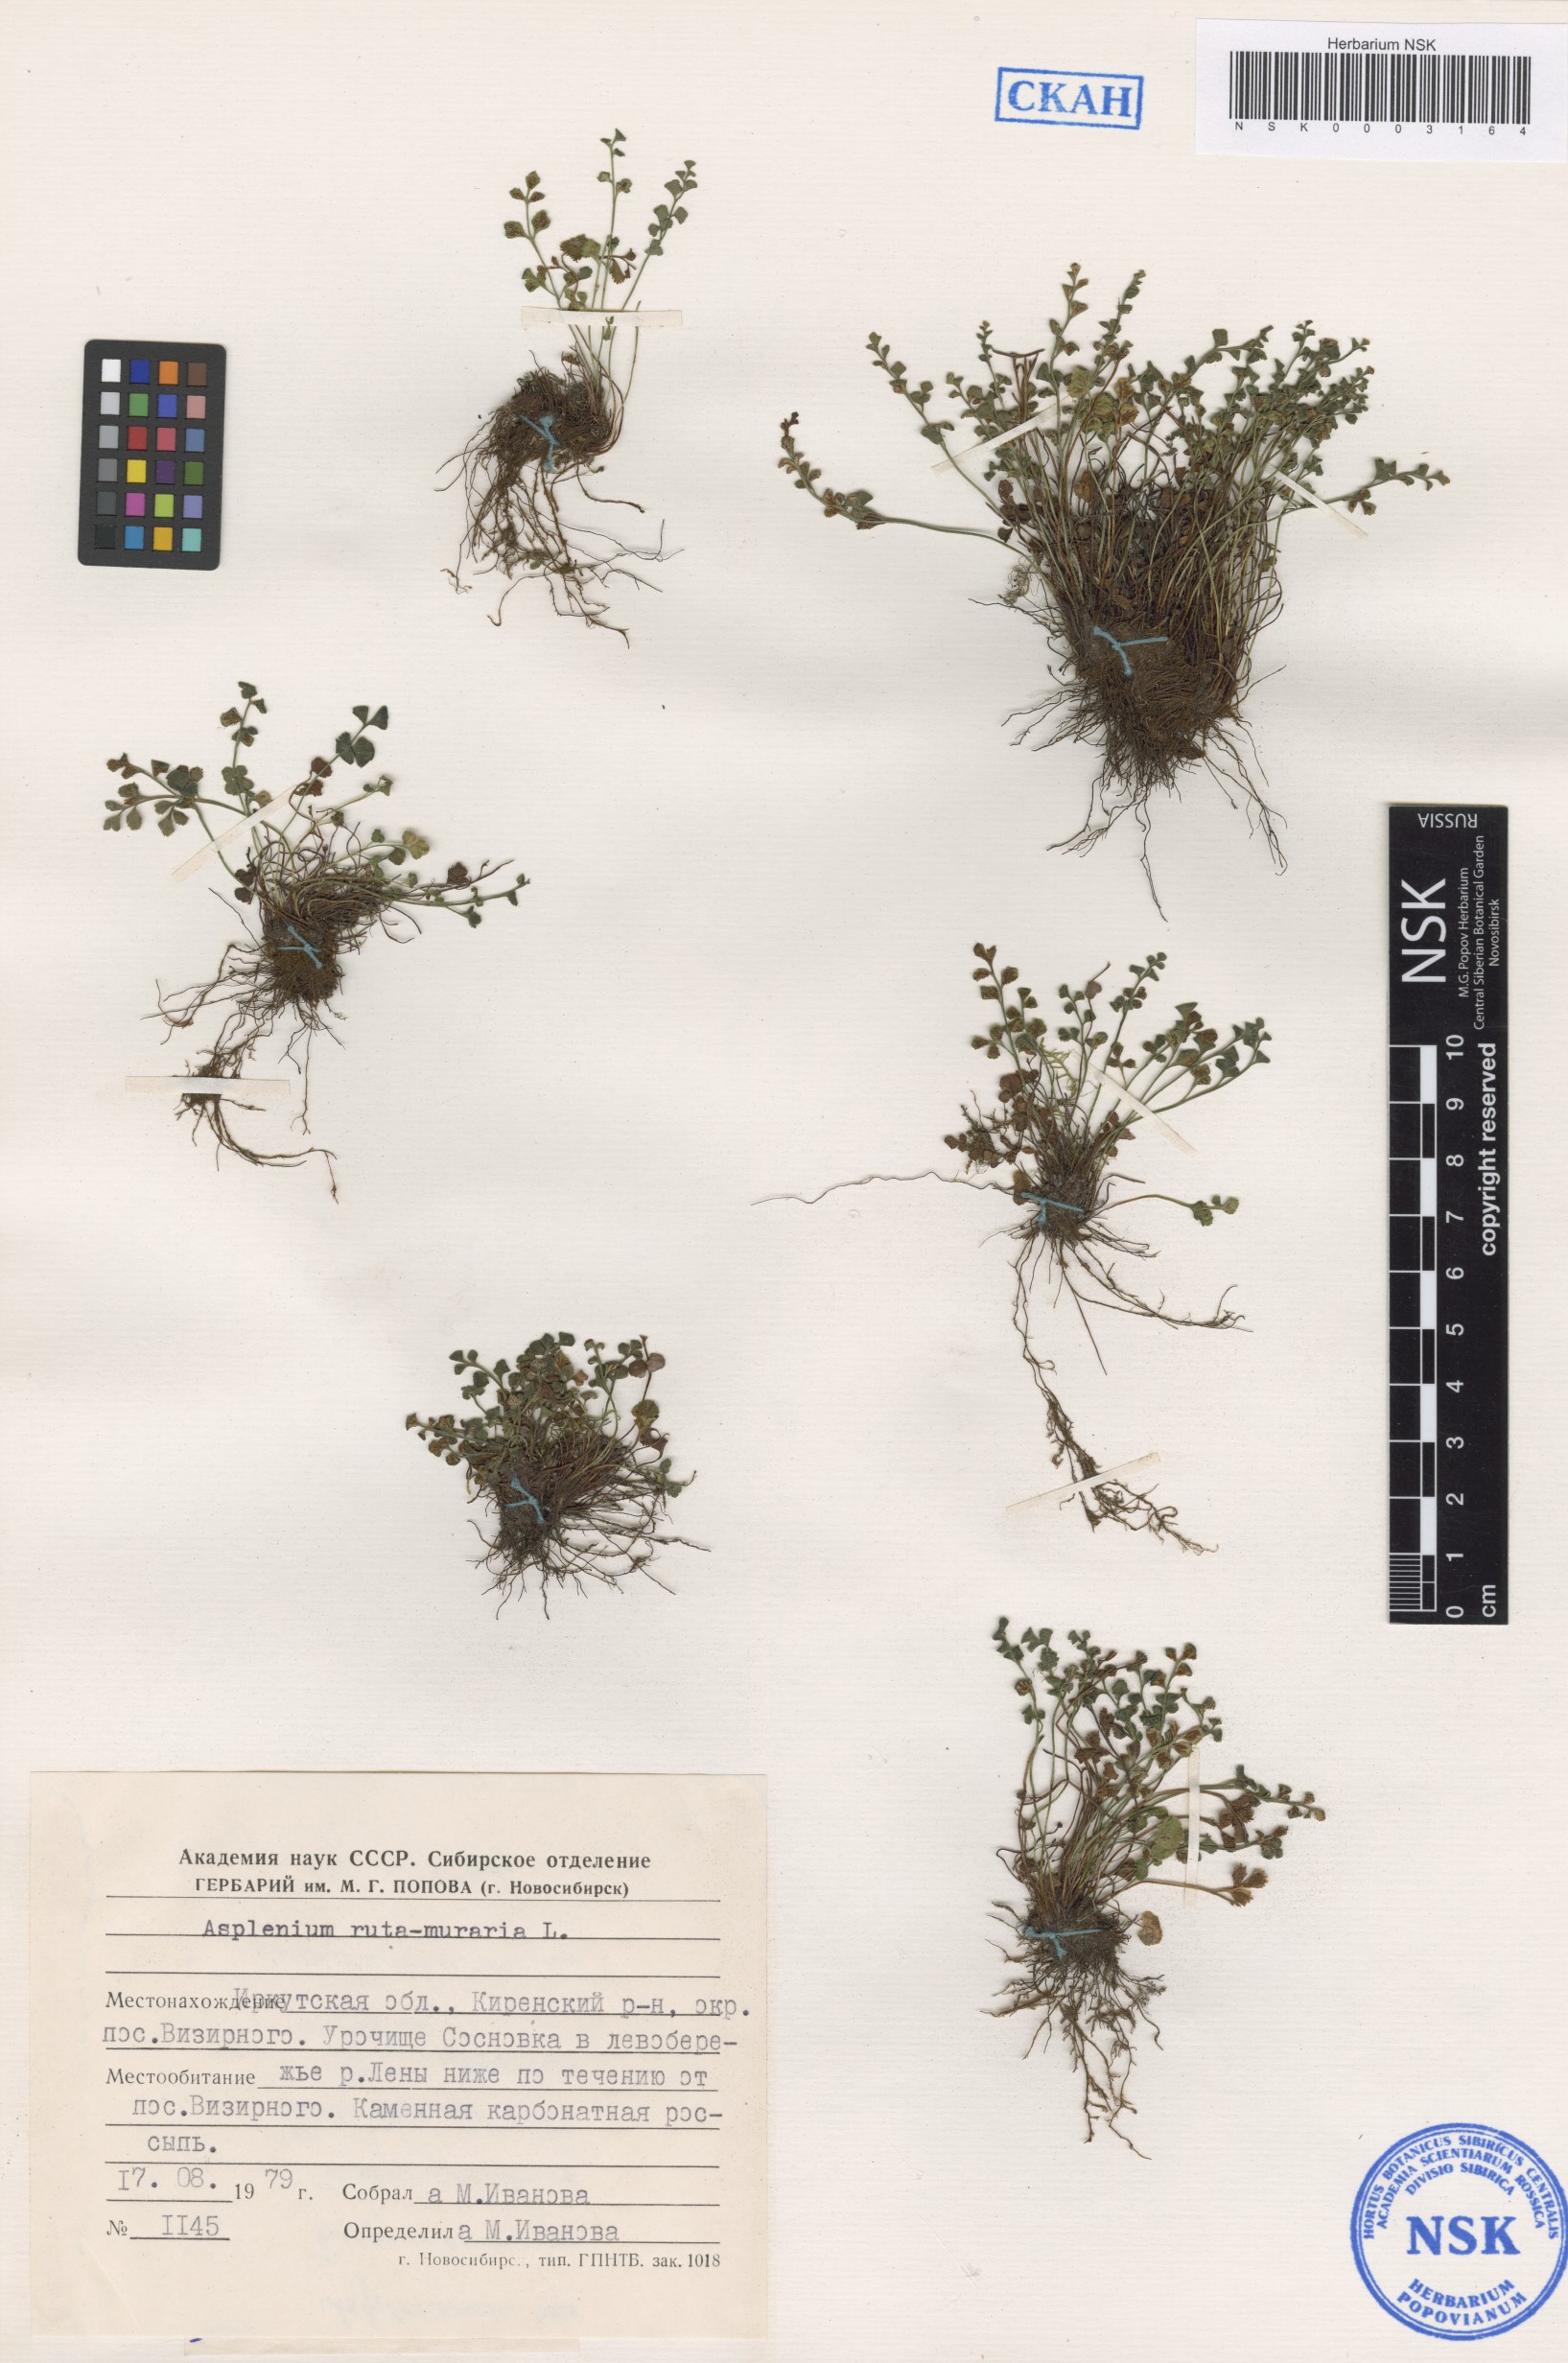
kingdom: Plantae
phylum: Tracheophyta
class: Polypodiopsida
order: Polypodiales
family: Aspleniaceae
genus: Asplenium
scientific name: Asplenium ruta-muraria
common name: Wall-rue
